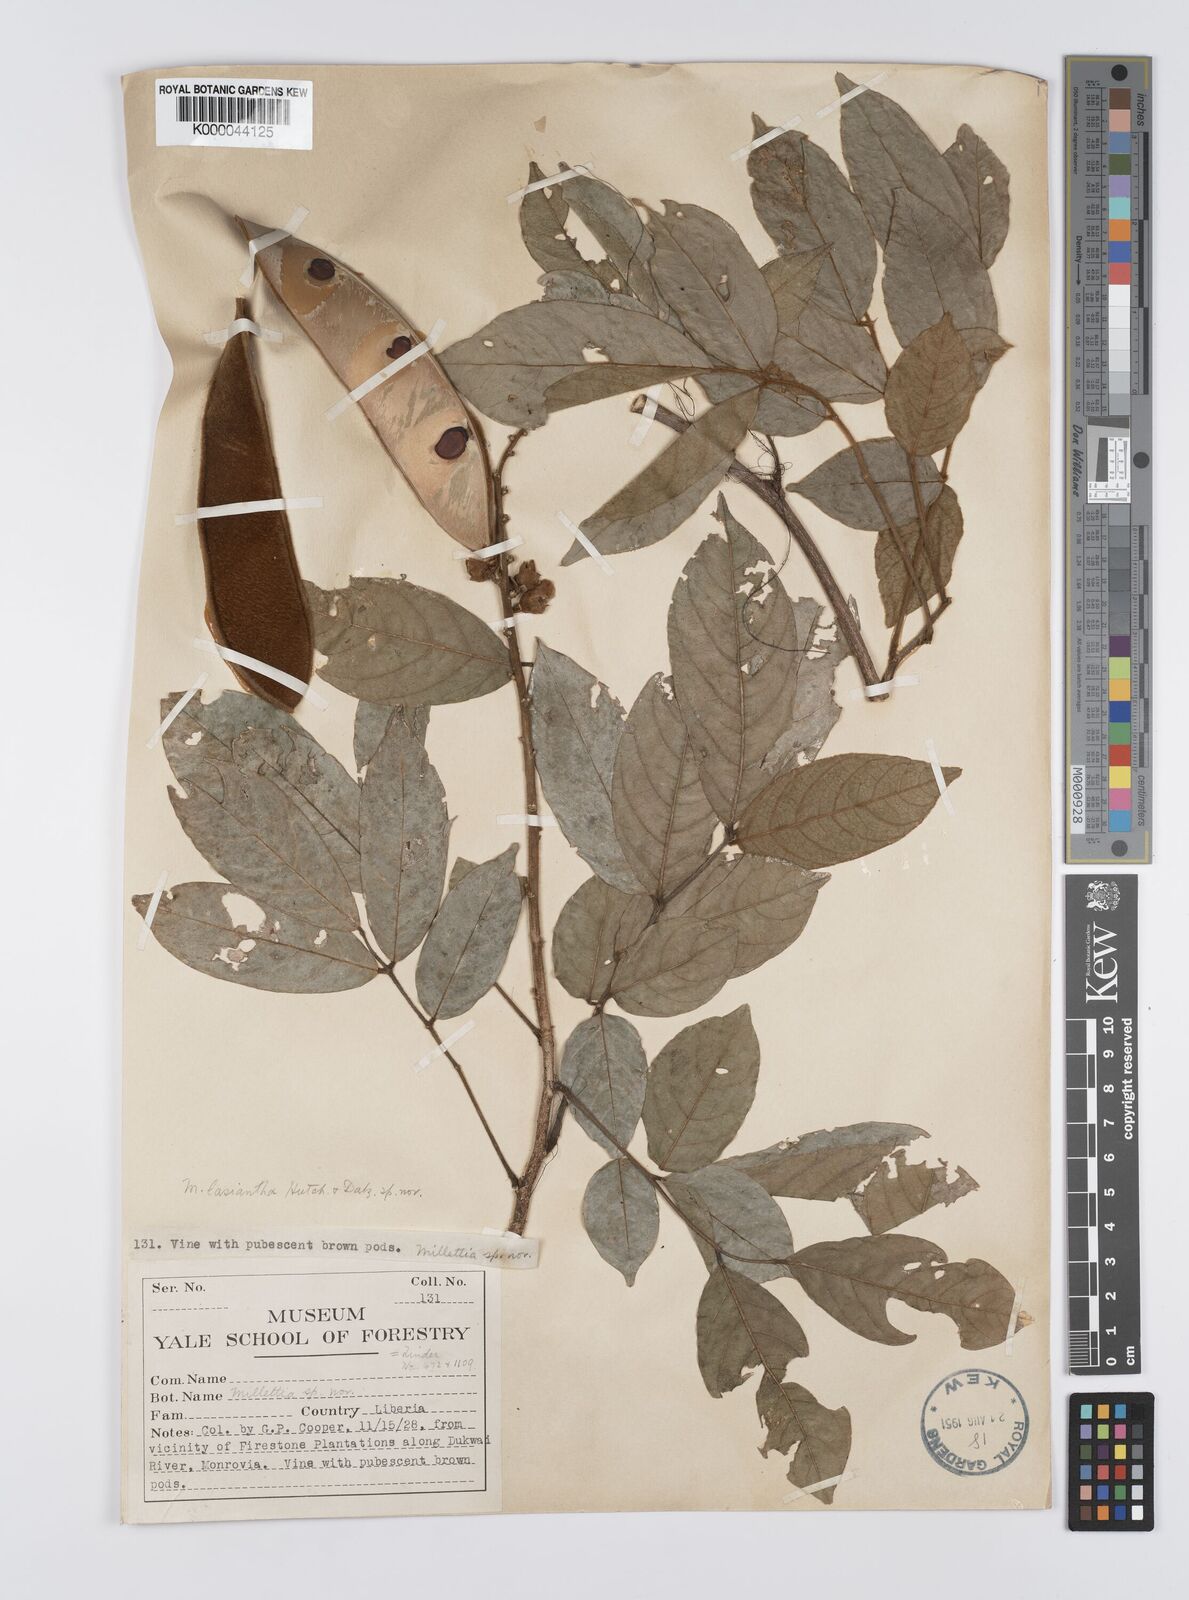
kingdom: Plantae
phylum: Tracheophyta
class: Magnoliopsida
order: Fabales
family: Fabaceae
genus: Platysepalum
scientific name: Platysepalum hirsutum
